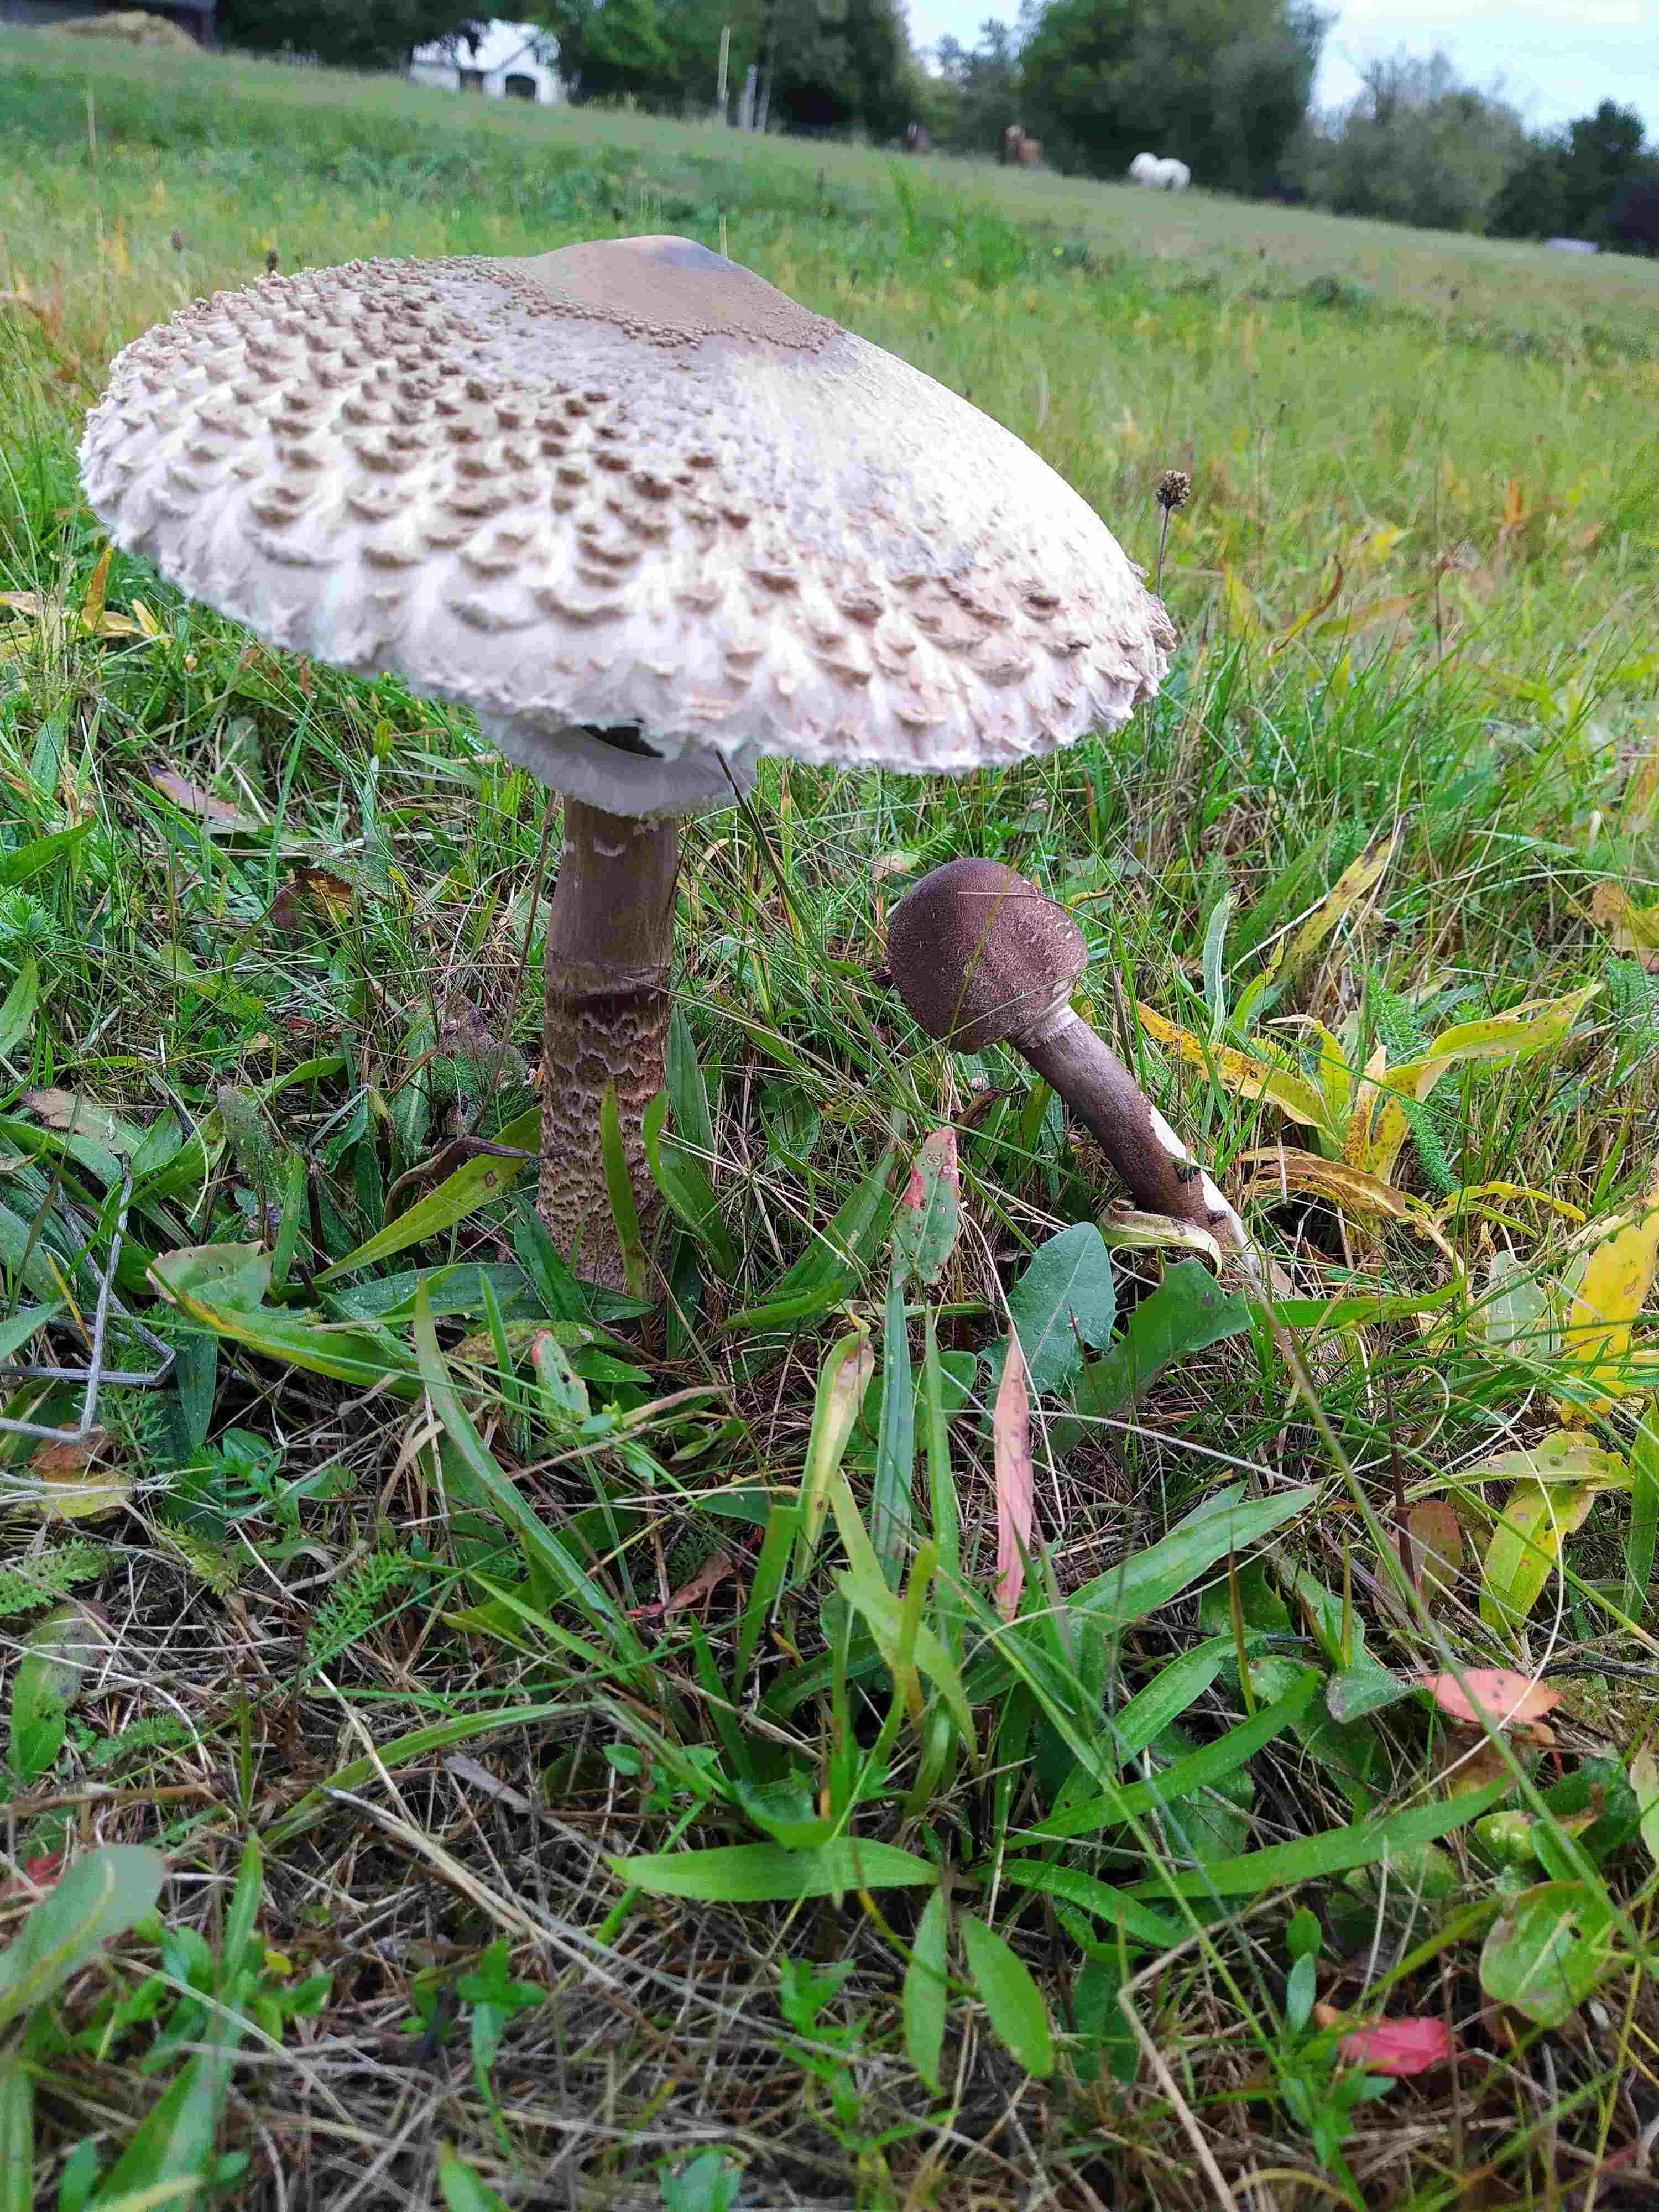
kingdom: Fungi
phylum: Basidiomycota
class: Agaricomycetes
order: Agaricales
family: Agaricaceae
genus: Macrolepiota
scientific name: Macrolepiota procera
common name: stor kæmpeparasolhat
